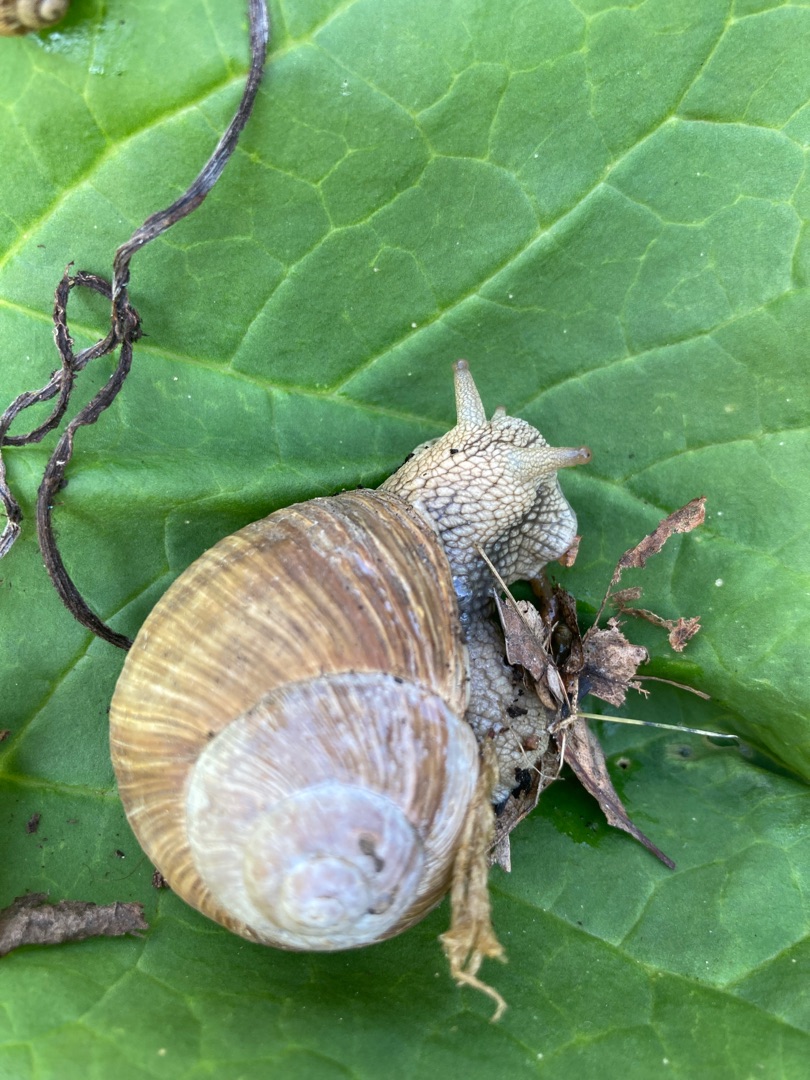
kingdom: Animalia
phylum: Mollusca
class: Gastropoda
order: Stylommatophora
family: Helicidae
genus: Helix
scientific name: Helix pomatia
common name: Vinbjergsnegl
